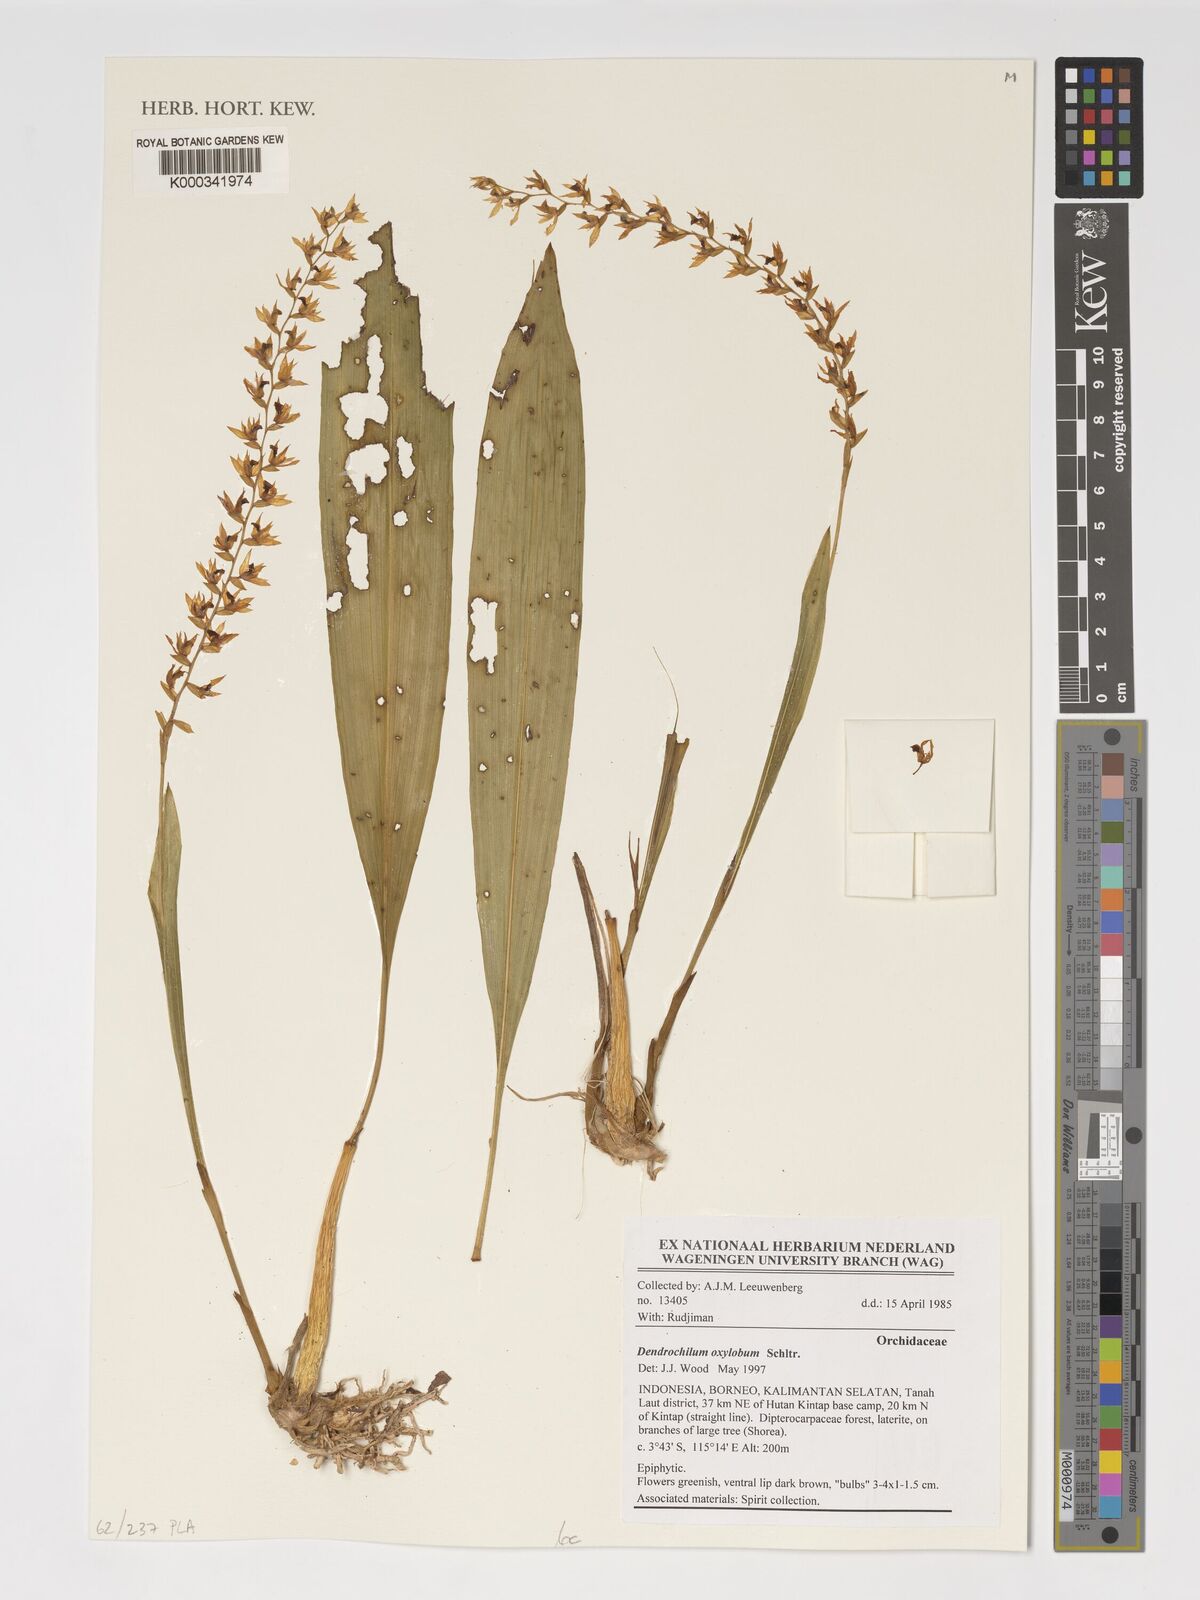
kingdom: Plantae
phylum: Tracheophyta
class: Liliopsida
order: Asparagales
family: Orchidaceae
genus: Coelogyne
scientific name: Coelogyne oxyloba
